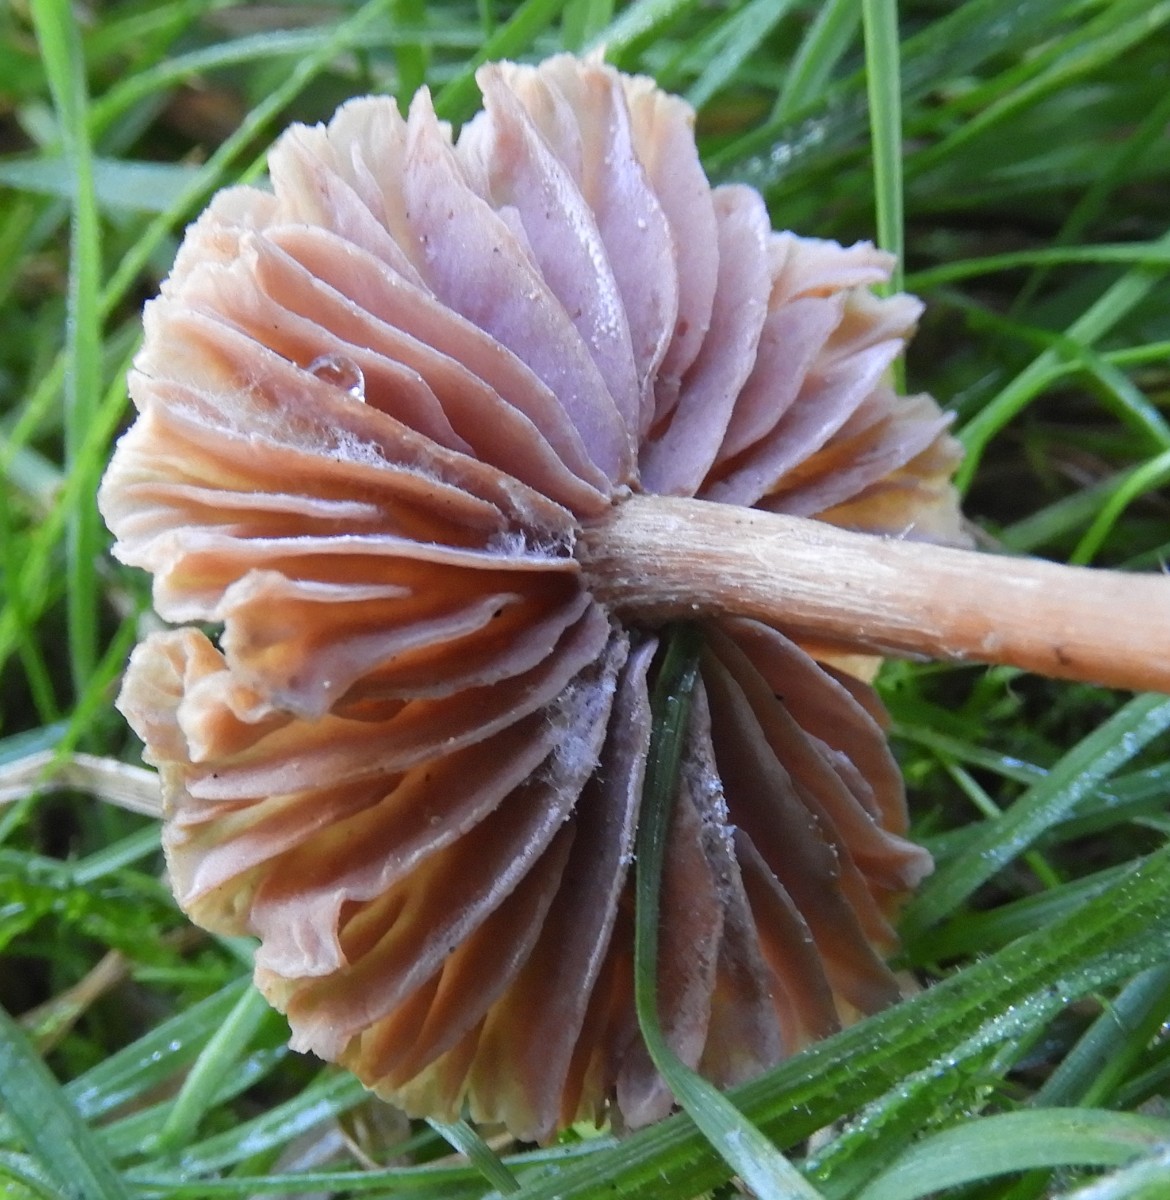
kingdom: Fungi
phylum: Basidiomycota
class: Agaricomycetes
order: Agaricales
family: Hydnangiaceae
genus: Laccaria
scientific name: Laccaria proxima
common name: stor ametysthat
